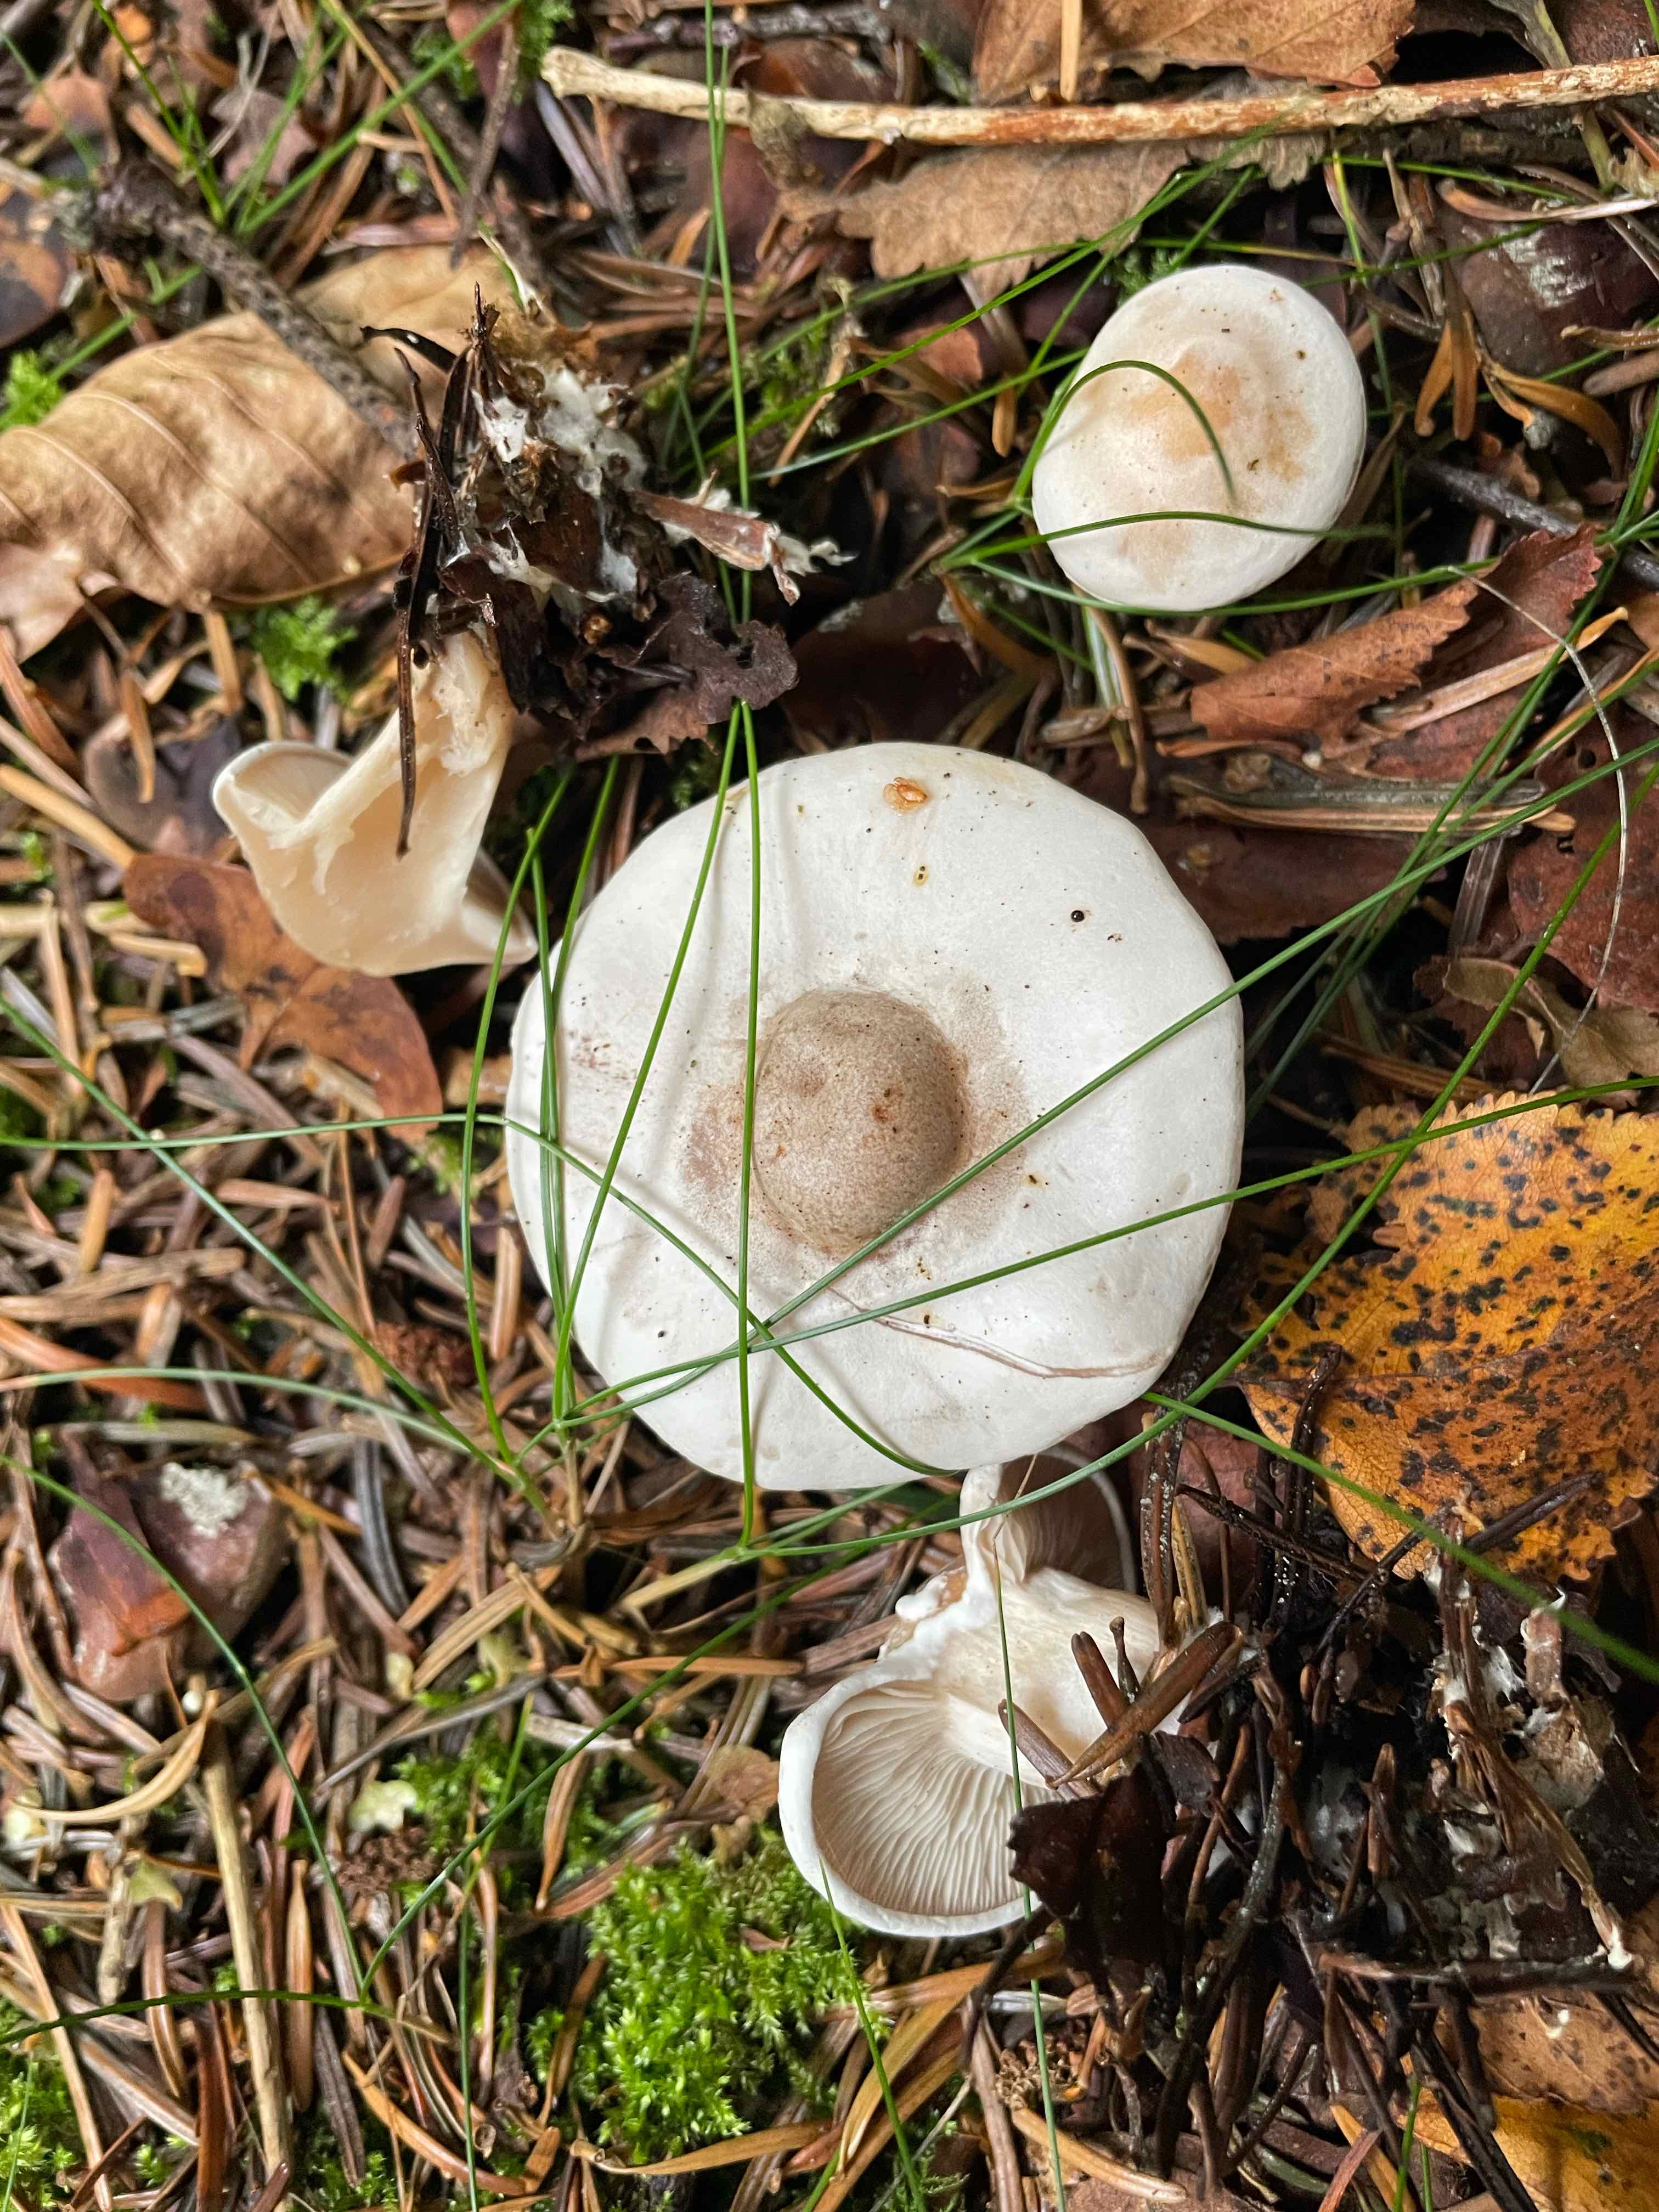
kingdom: Fungi
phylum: Basidiomycota
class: Agaricomycetes
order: Agaricales
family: Tricholomataceae
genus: Clitocybe
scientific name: Clitocybe phyllophila
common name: løv-tragthat
